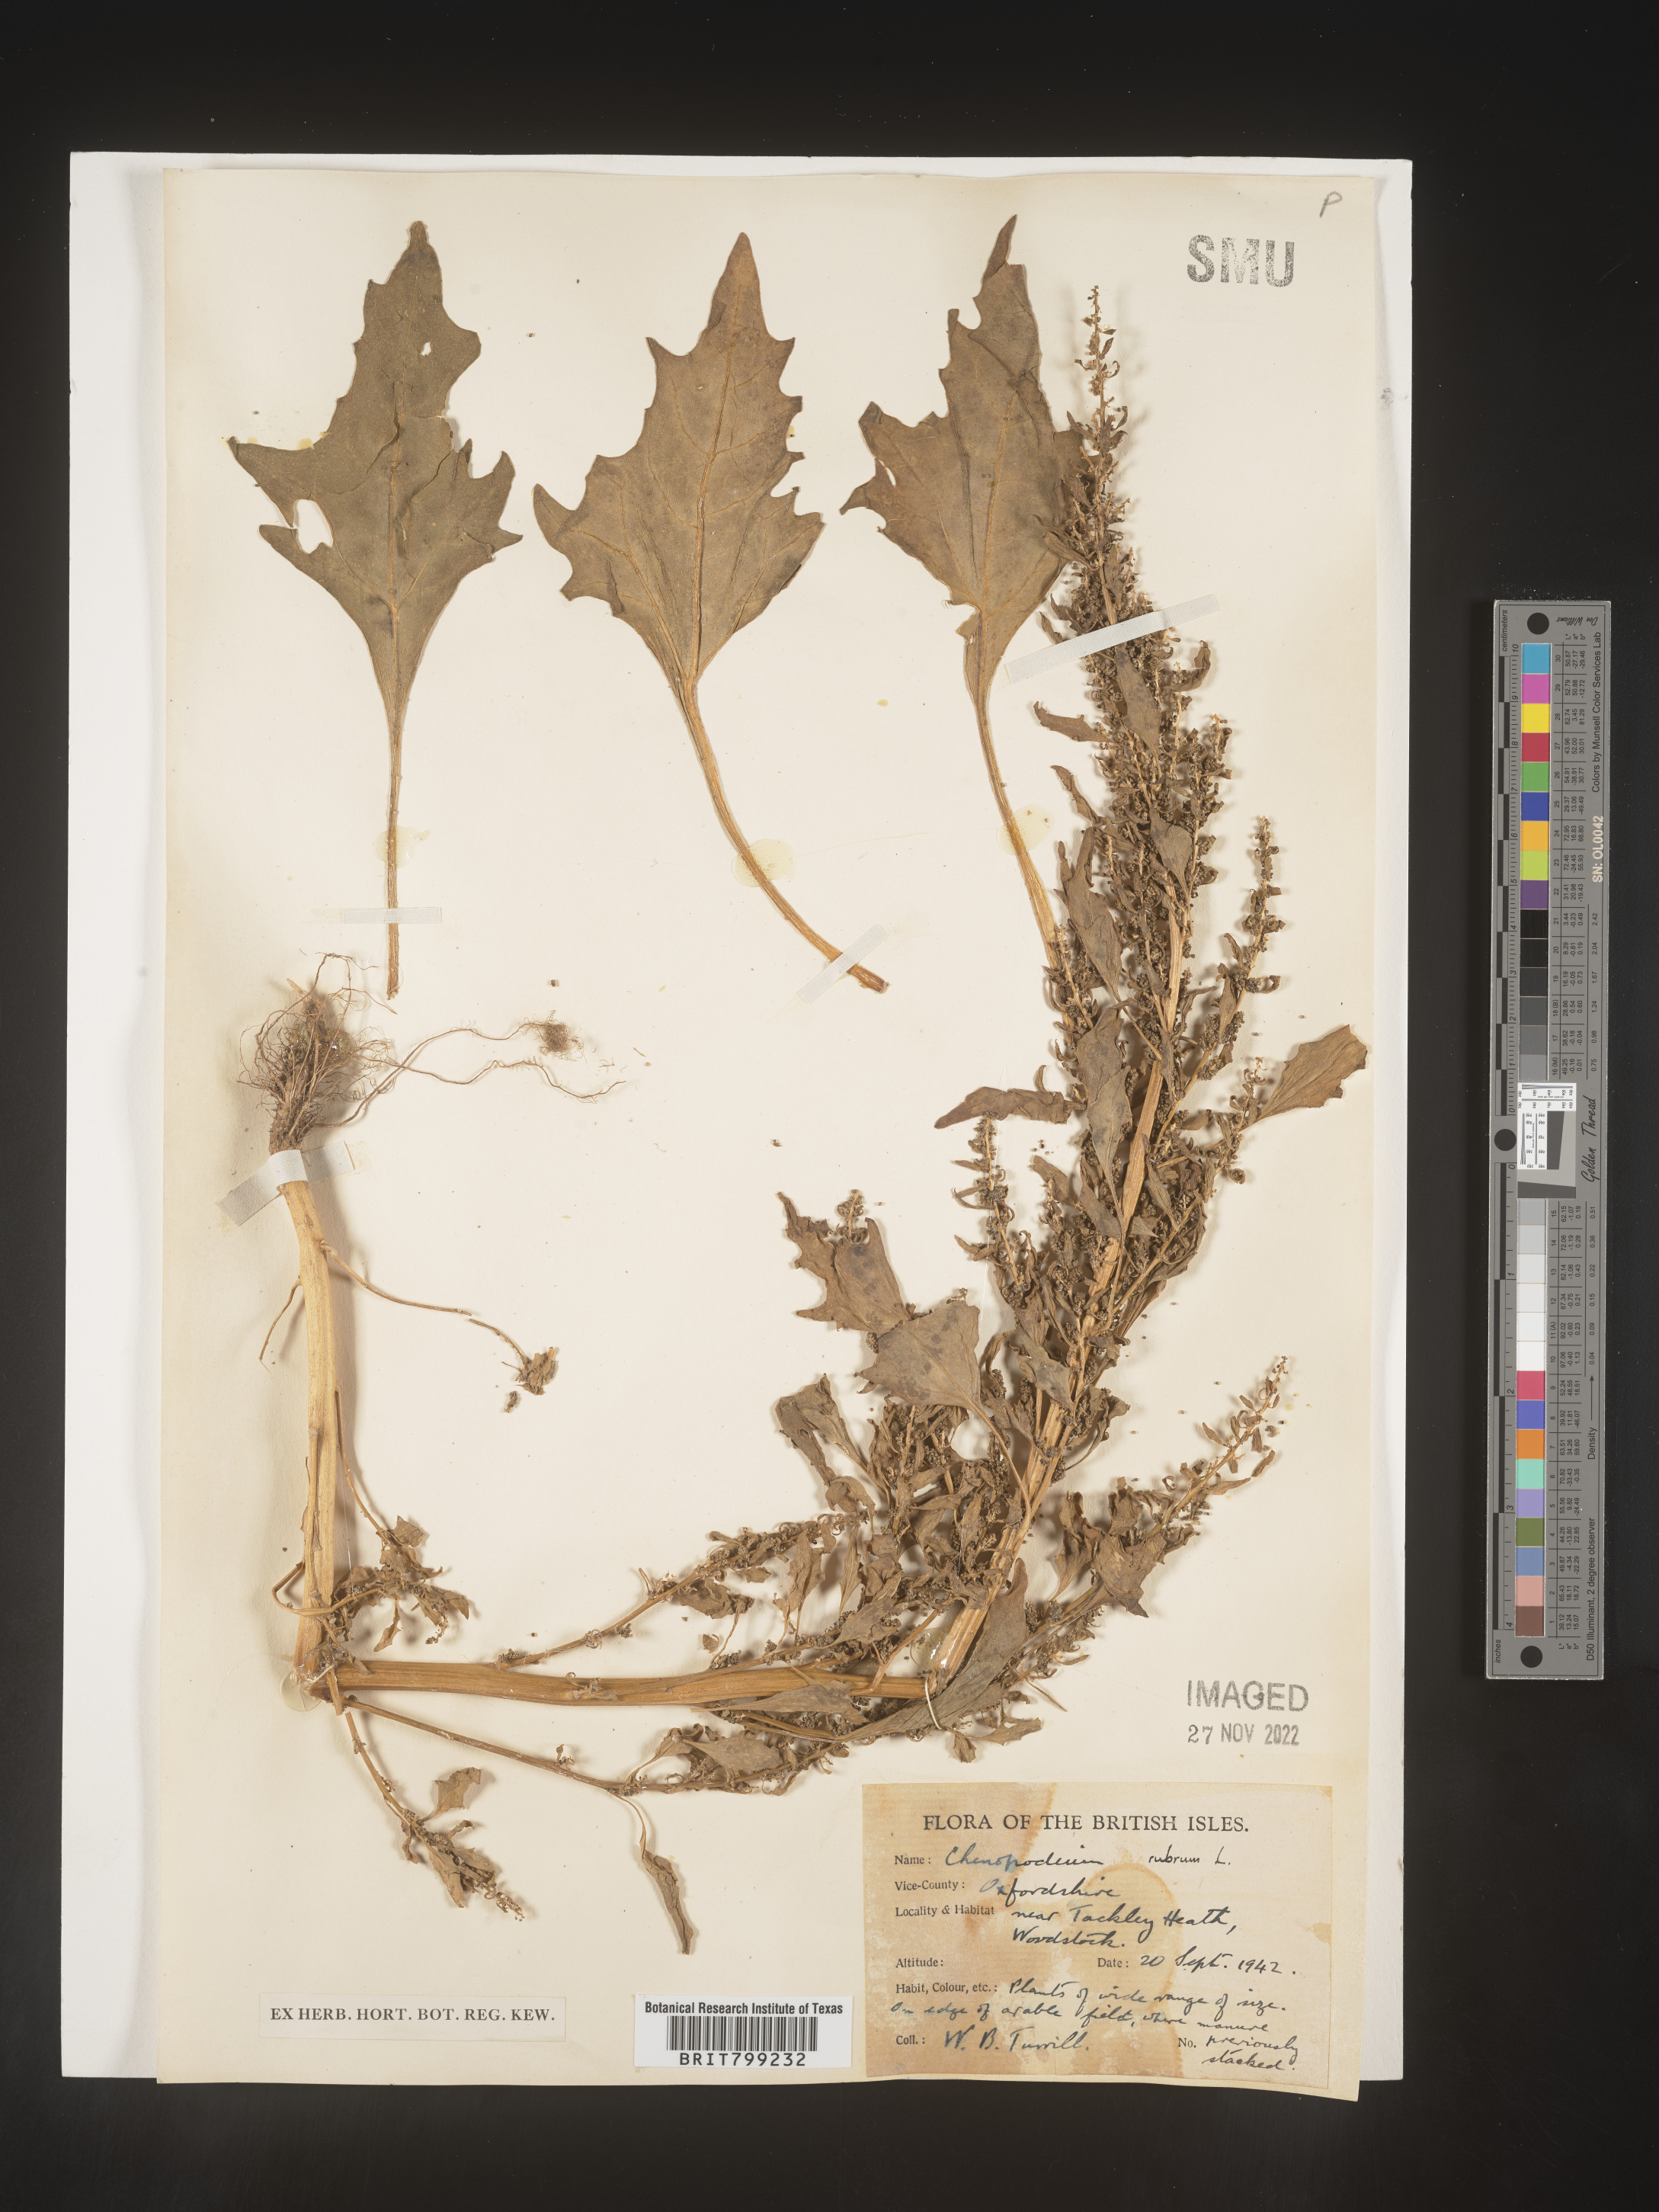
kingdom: Plantae
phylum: Tracheophyta
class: Magnoliopsida
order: Caryophyllales
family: Amaranthaceae
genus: Oxybasis
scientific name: Oxybasis rubra
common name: Red goosefoot
